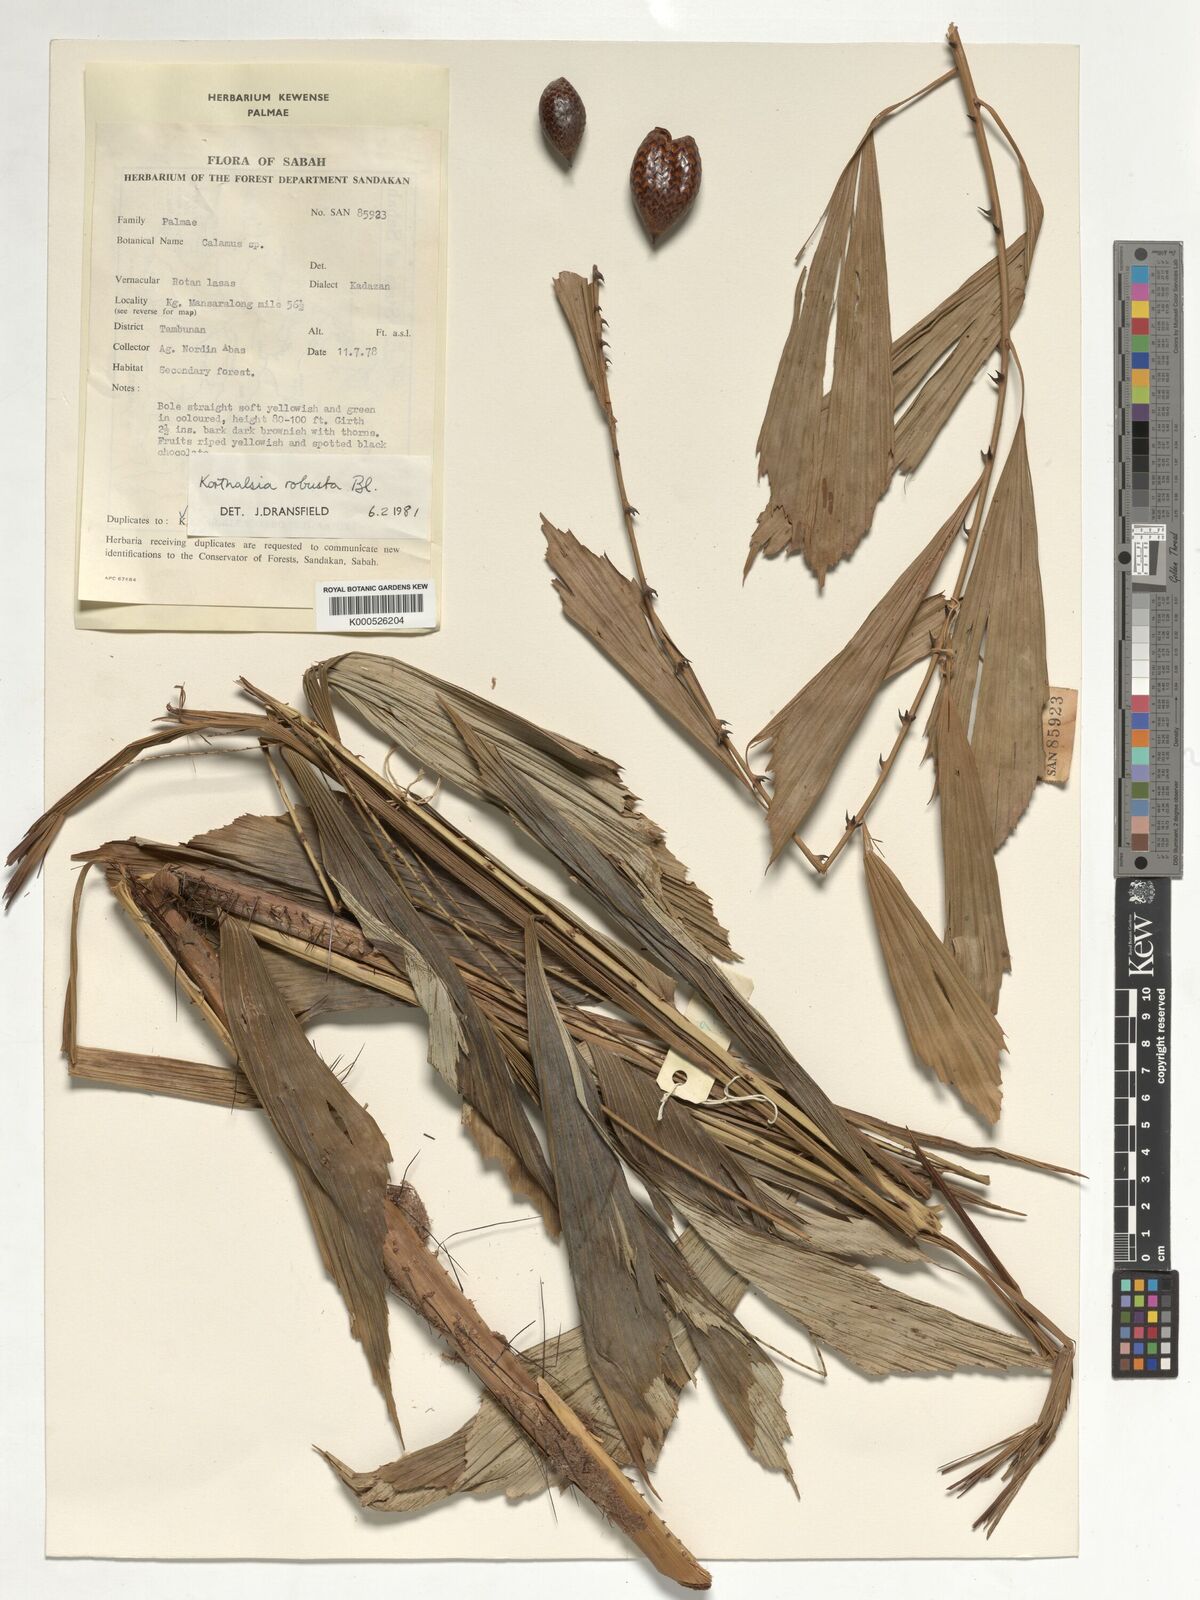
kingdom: Plantae
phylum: Tracheophyta
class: Liliopsida
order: Arecales
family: Arecaceae
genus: Korthalsia
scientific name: Korthalsia robusta
